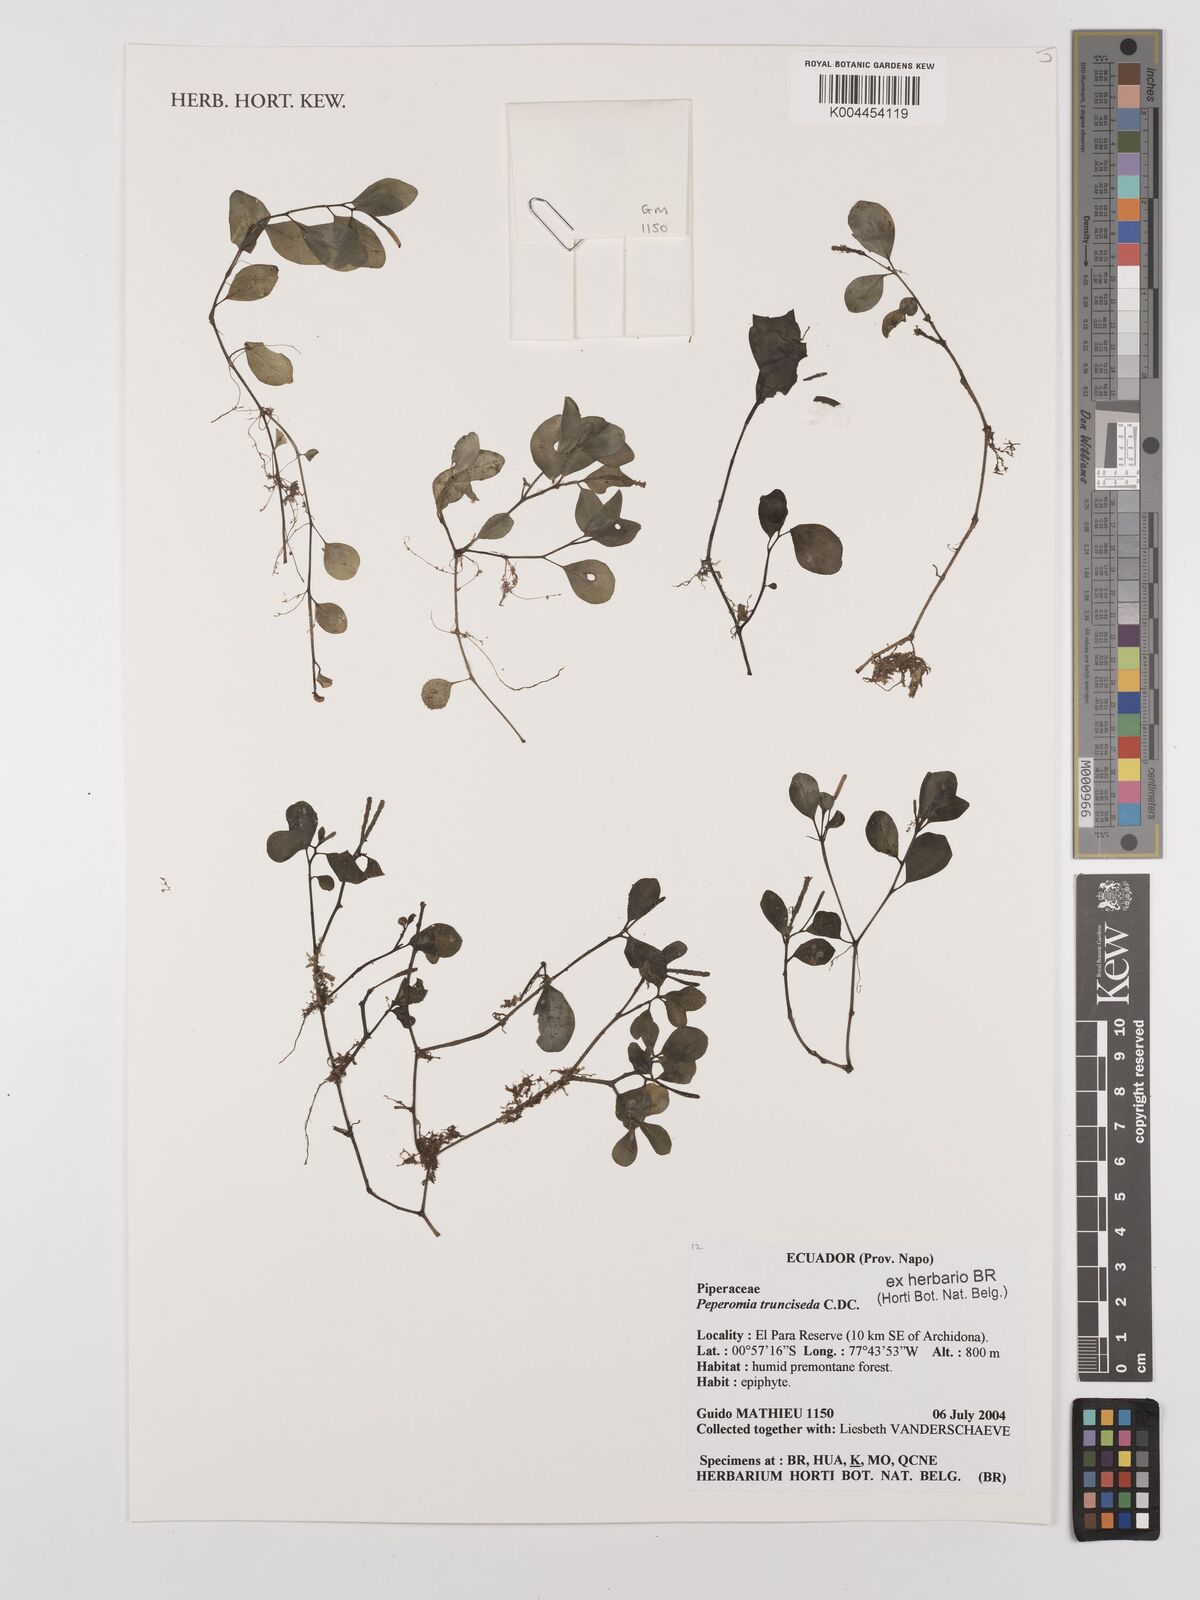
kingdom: Plantae
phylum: Tracheophyta
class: Magnoliopsida
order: Piperales
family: Piperaceae
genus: Peperomia
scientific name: Peperomia trunciseda
